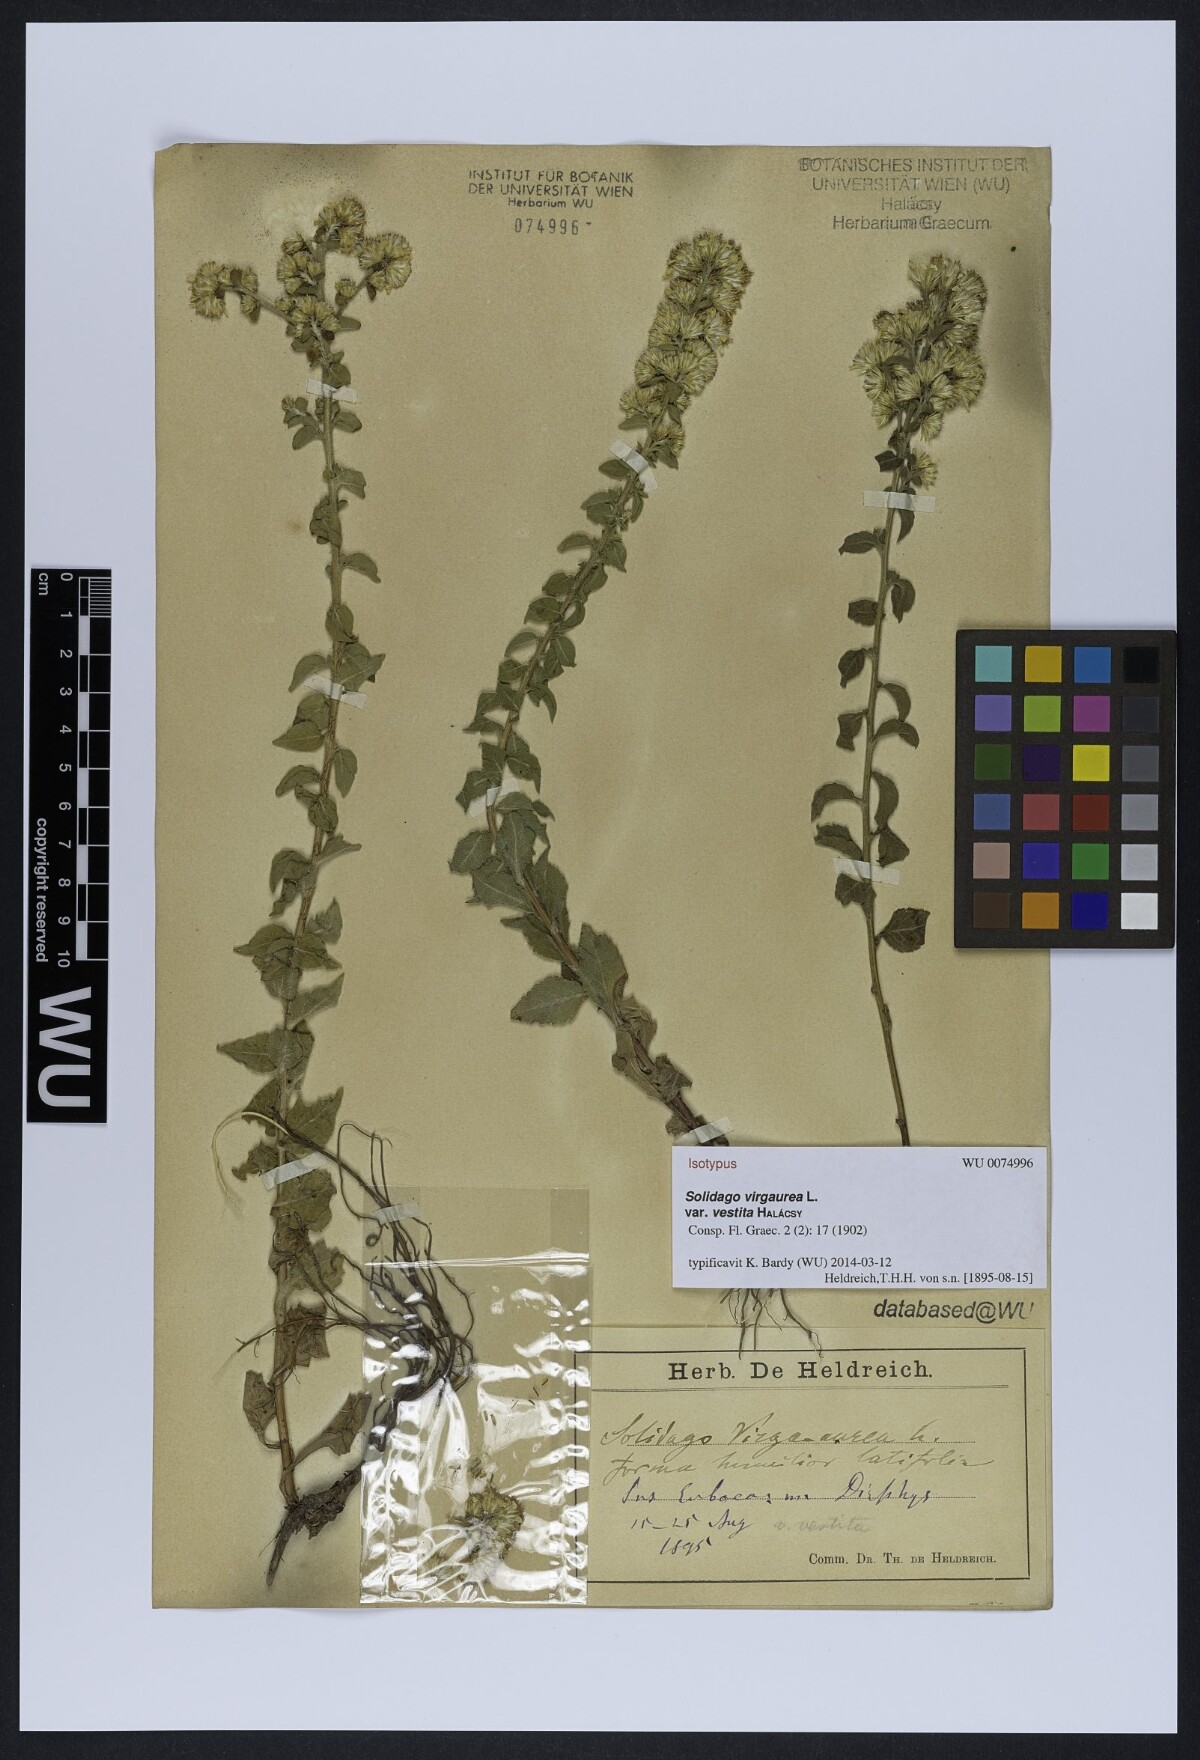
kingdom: Plantae
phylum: Tracheophyta
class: Magnoliopsida
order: Asterales
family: Asteraceae
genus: Solidago
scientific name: Solidago virgaurea
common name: Goldenrod
